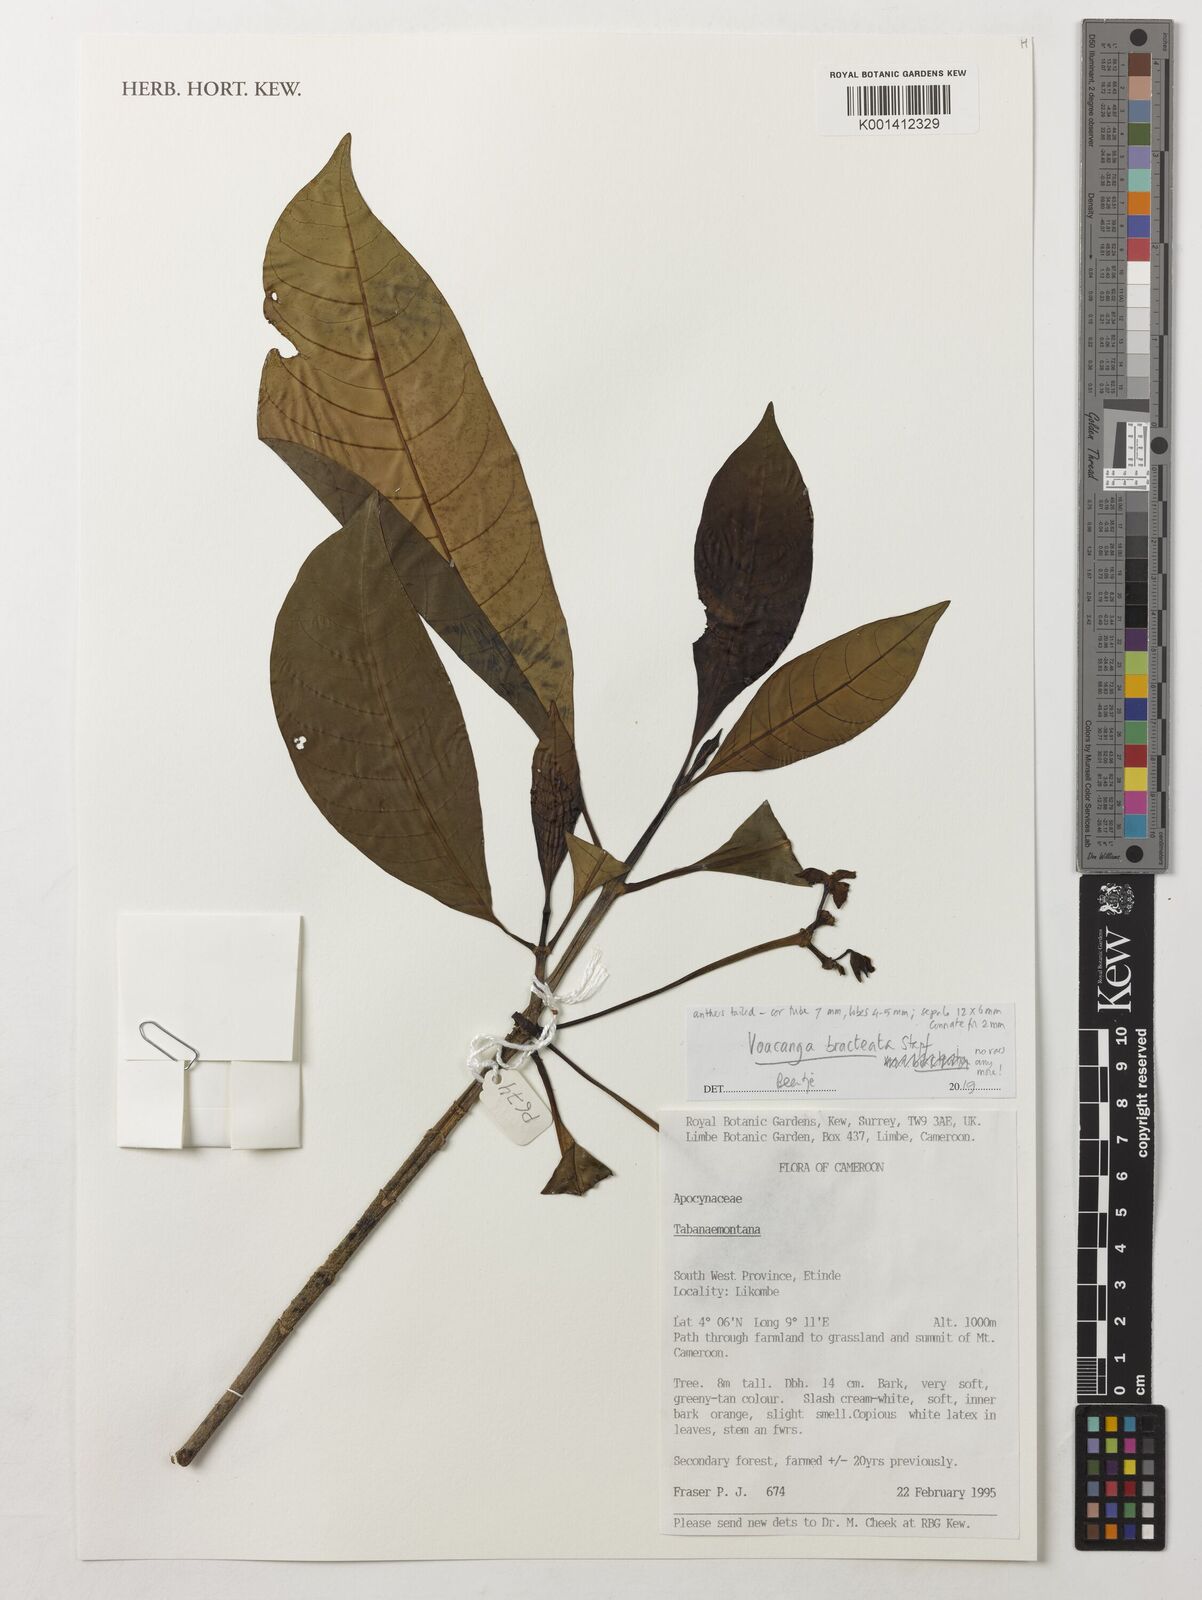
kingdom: Plantae
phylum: Tracheophyta
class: Magnoliopsida
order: Gentianales
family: Apocynaceae
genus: Voacanga
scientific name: Voacanga bracteata
